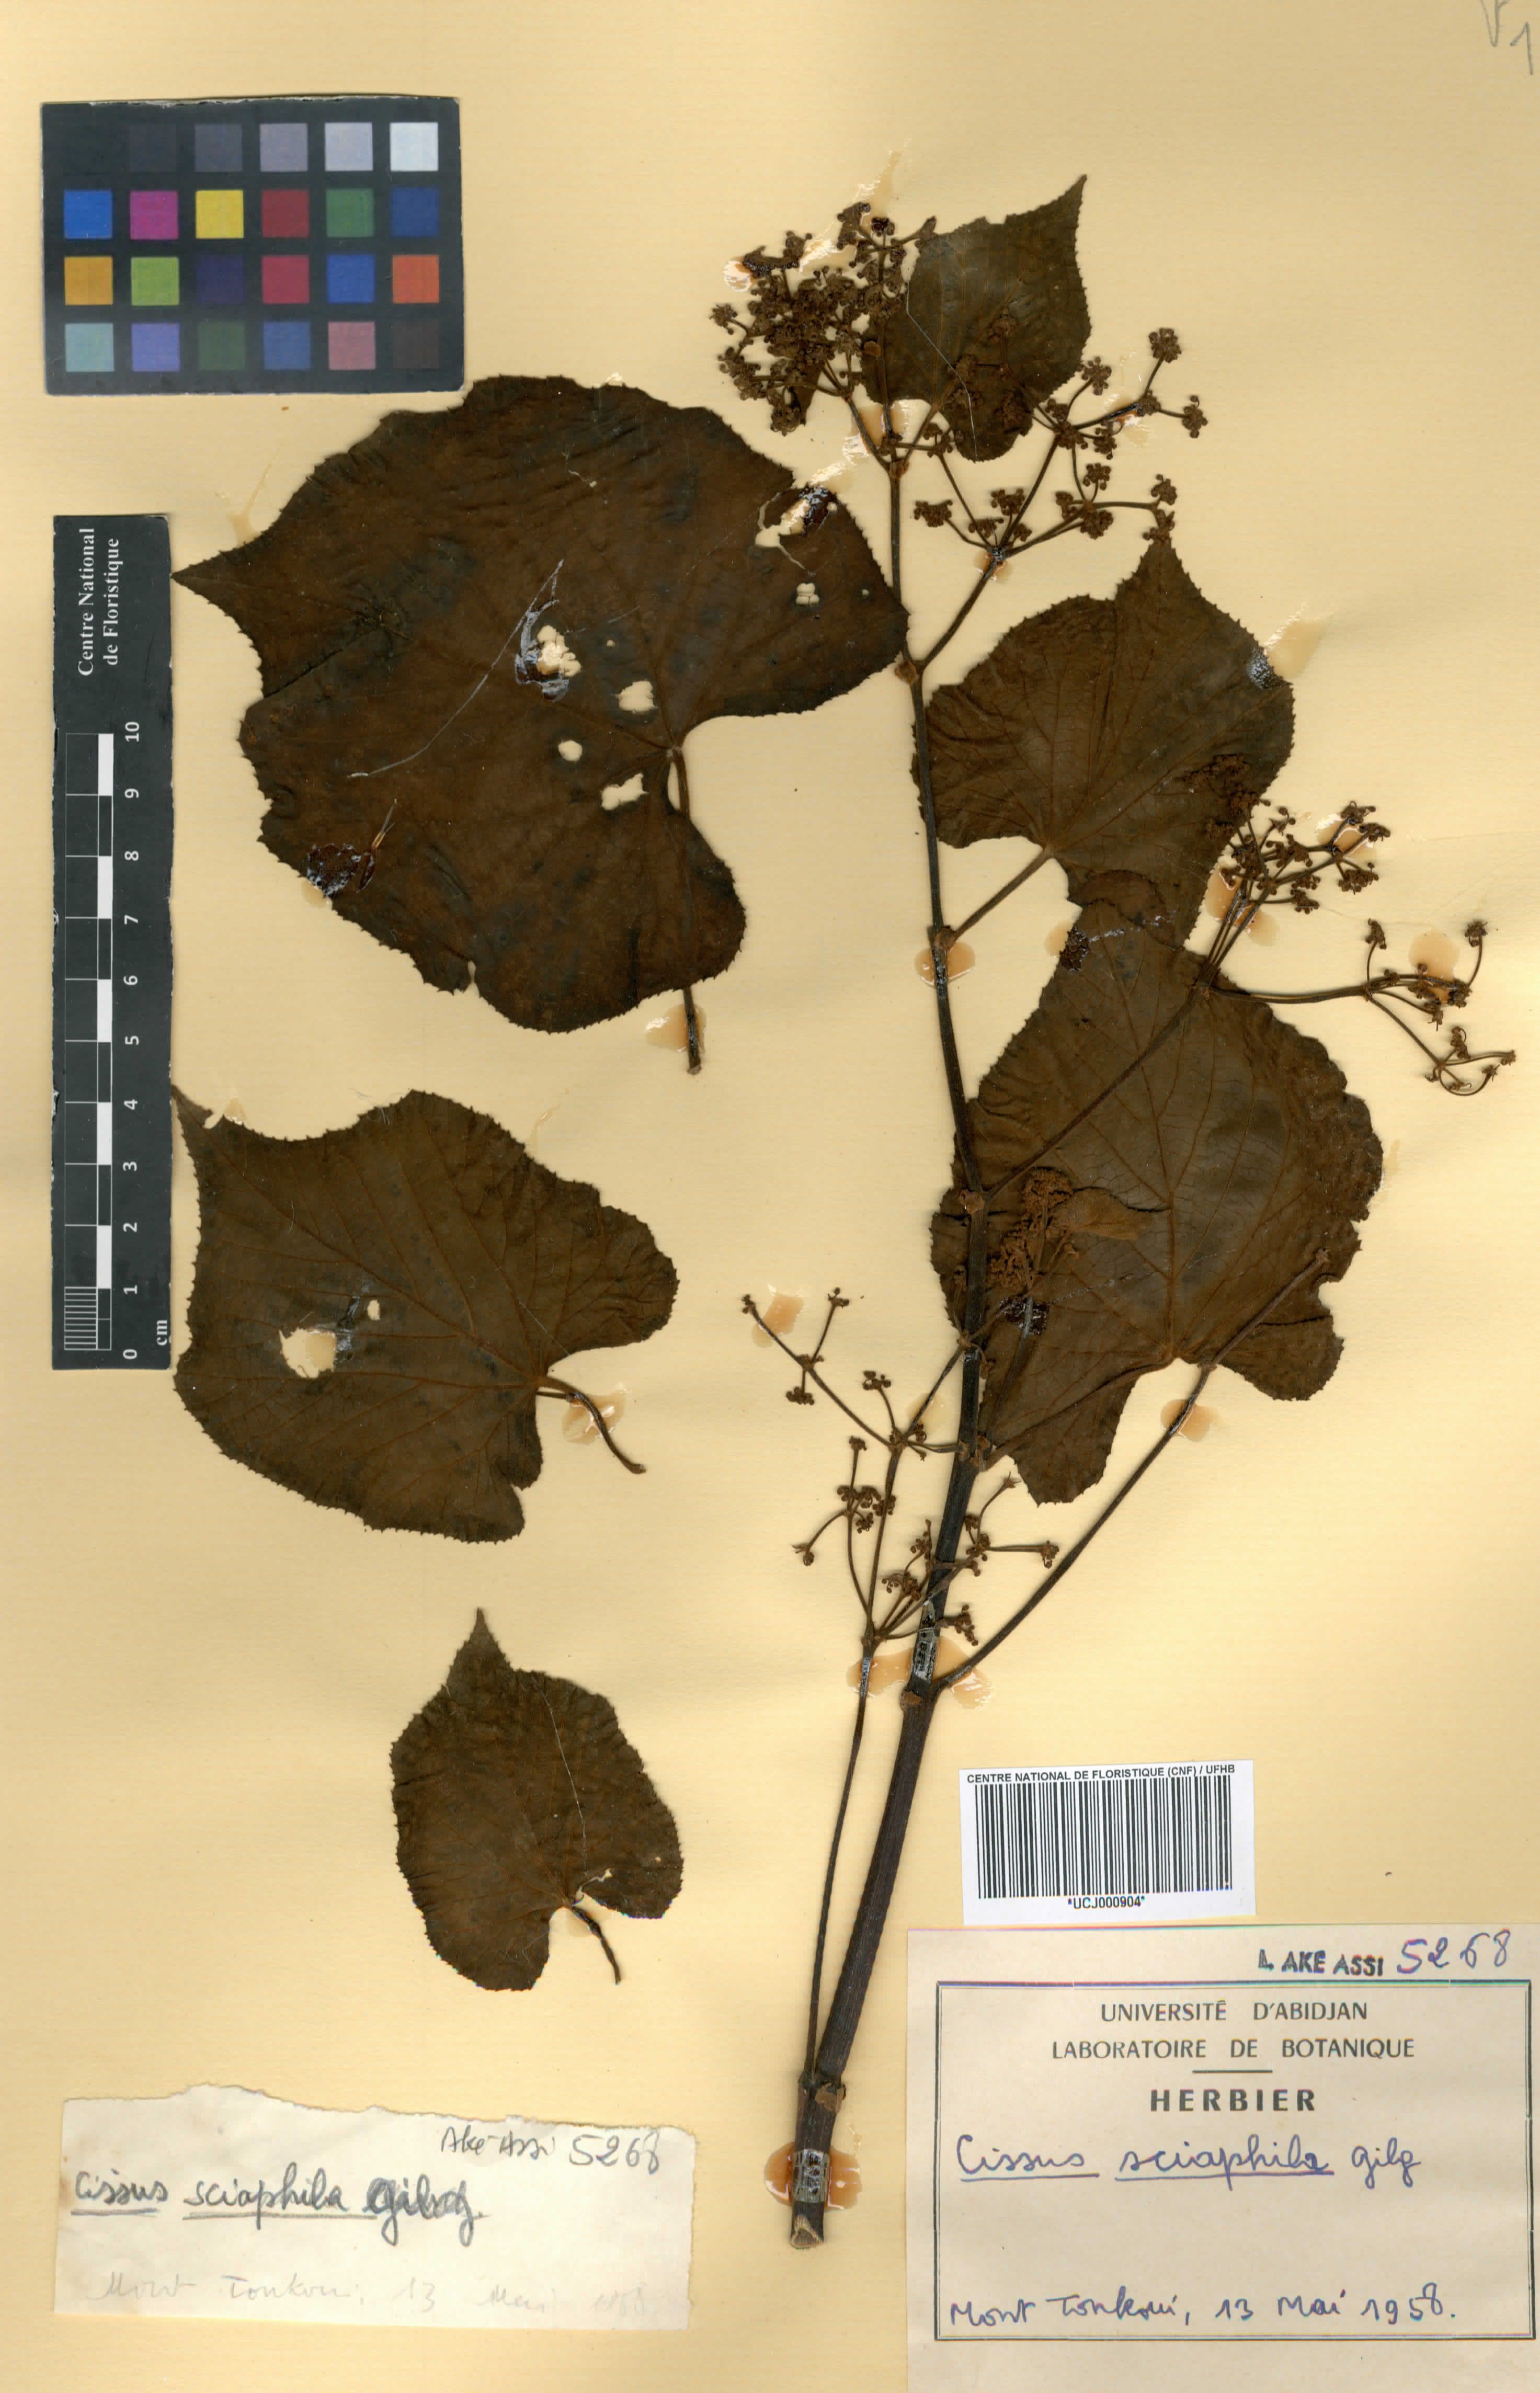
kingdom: Plantae
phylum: Tracheophyta
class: Magnoliopsida
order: Vitales
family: Vitaceae
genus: Cissus
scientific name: Cissus sciaphila
